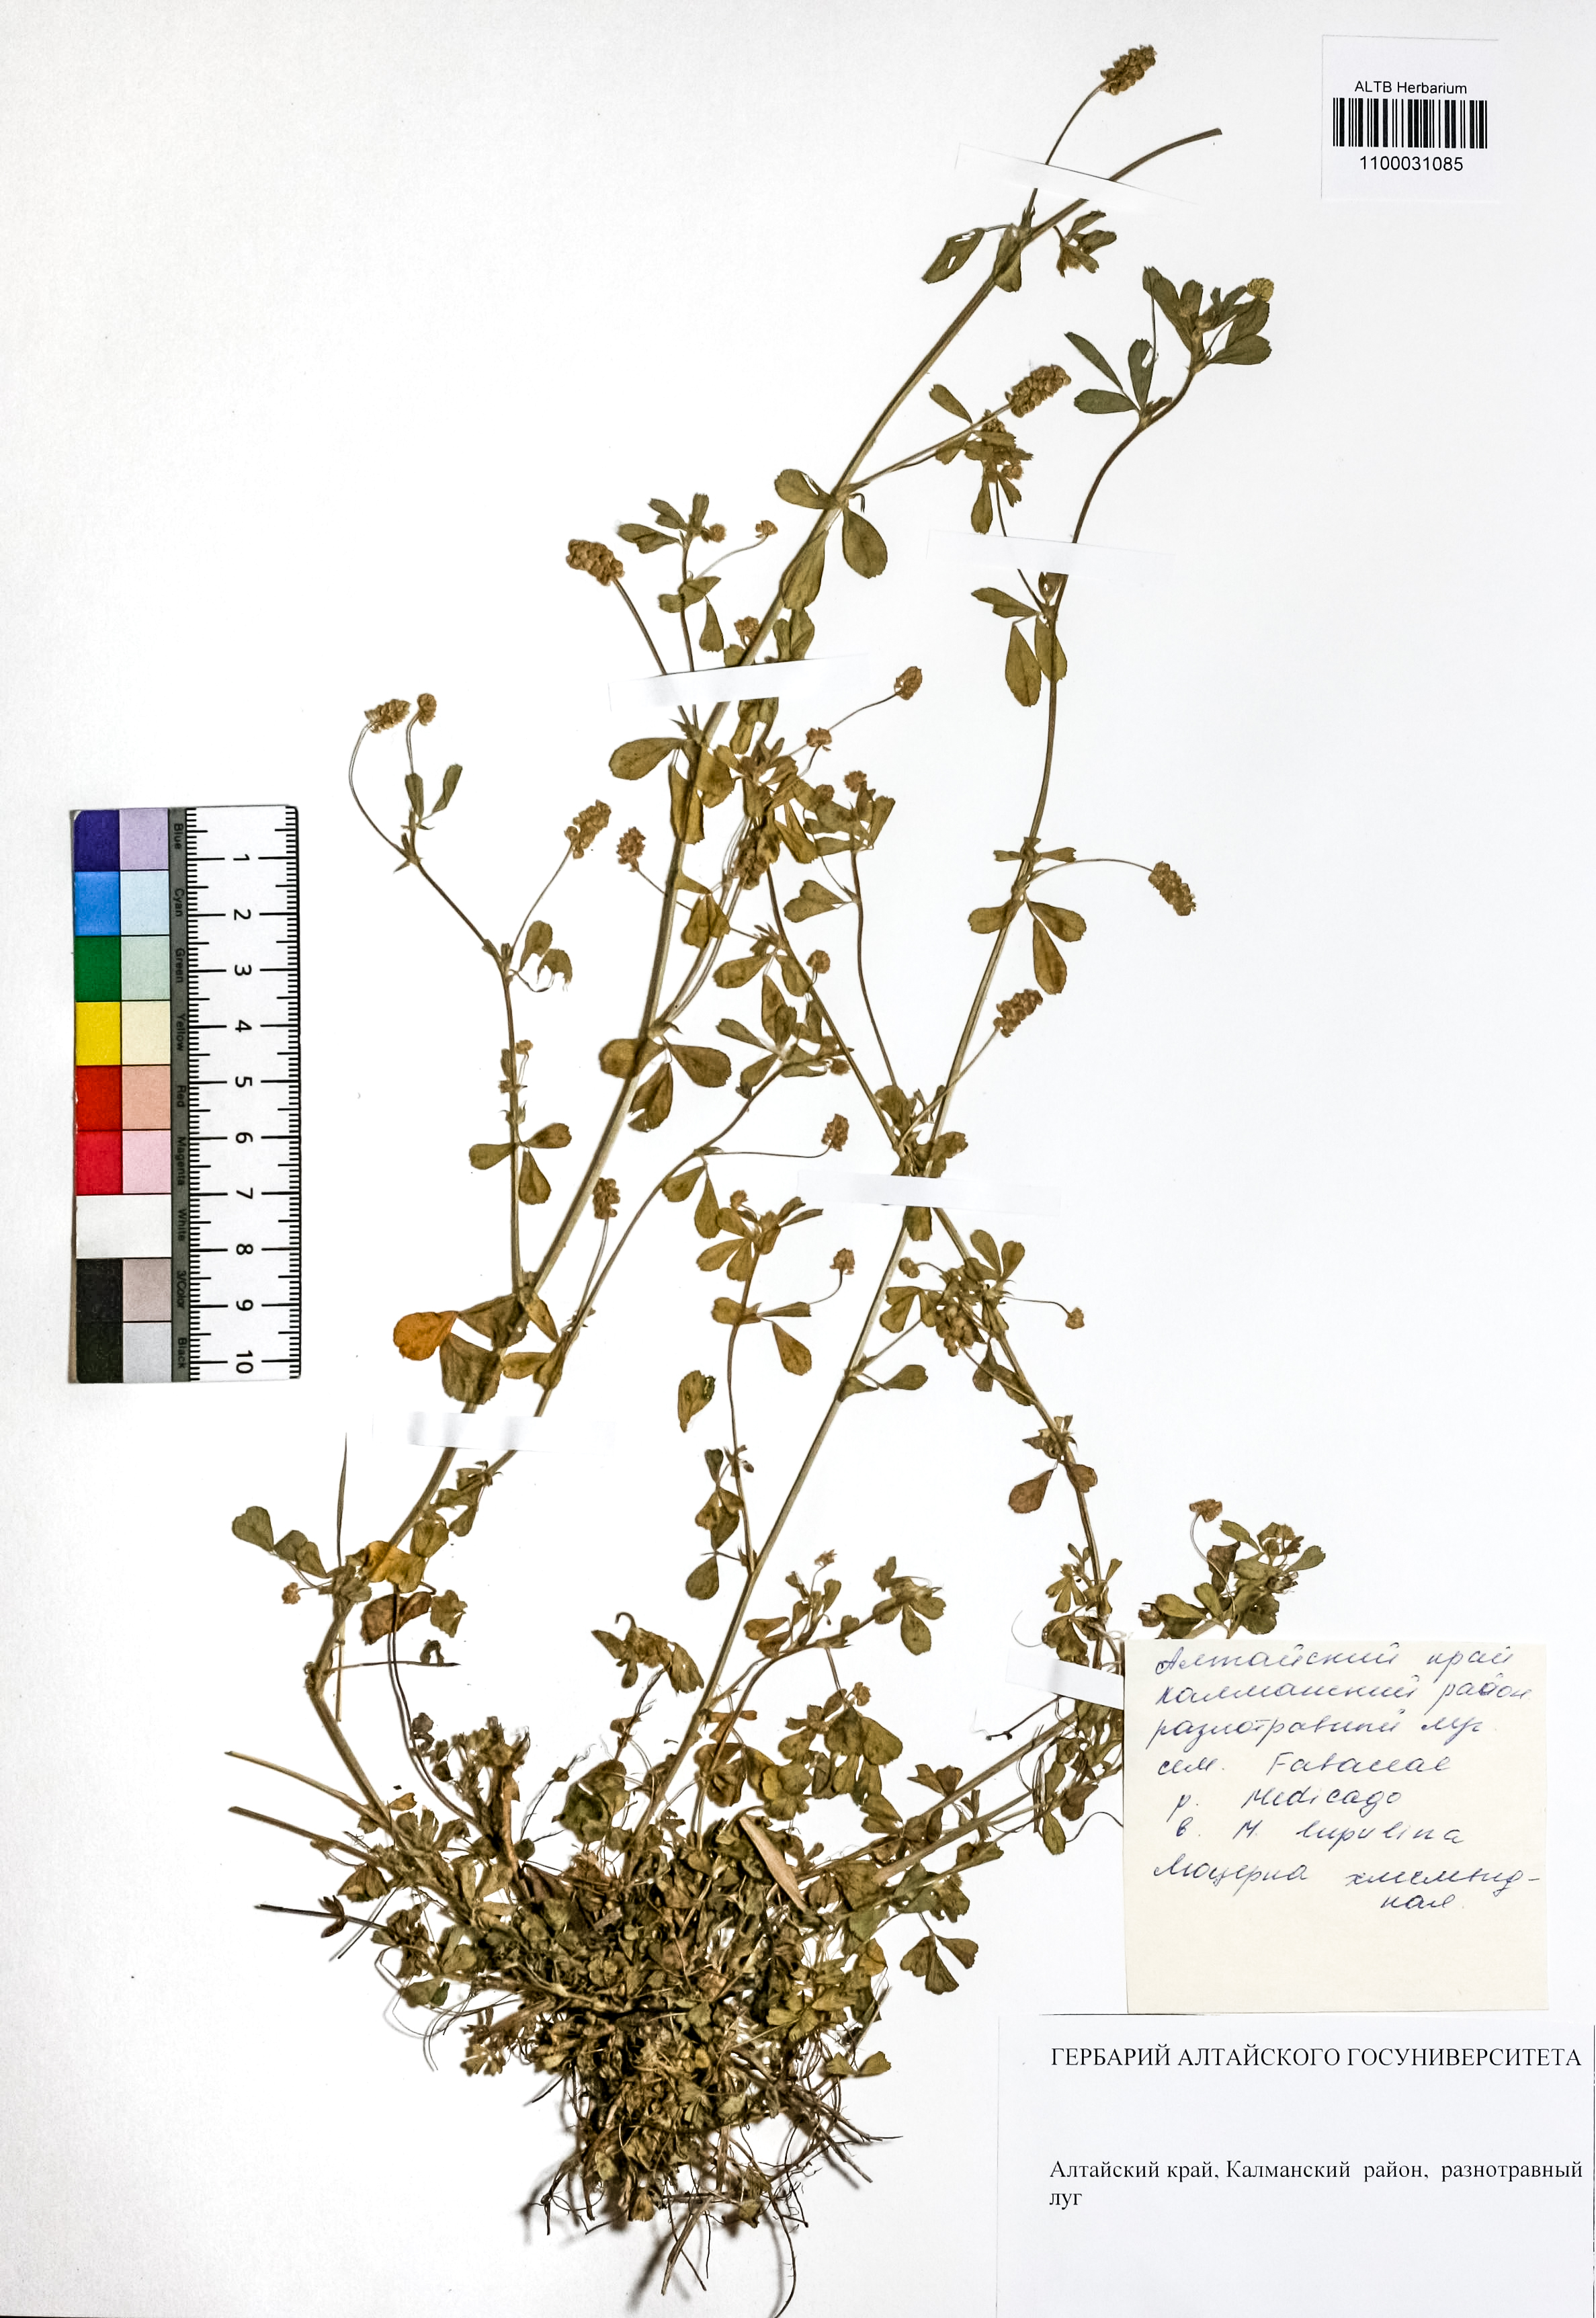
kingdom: Plantae
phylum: Tracheophyta
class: Magnoliopsida
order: Fabales
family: Fabaceae
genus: Medicago
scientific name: Medicago lupulina
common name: Black medick
